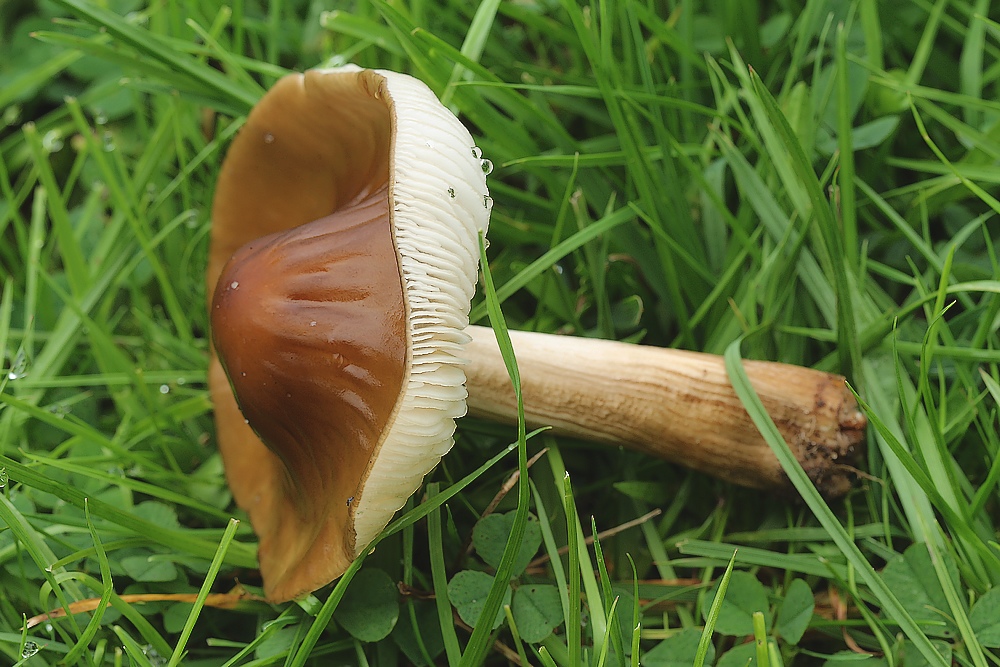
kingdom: Fungi
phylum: Basidiomycota
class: Agaricomycetes
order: Agaricales
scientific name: Agaricales
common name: champignonordenen
